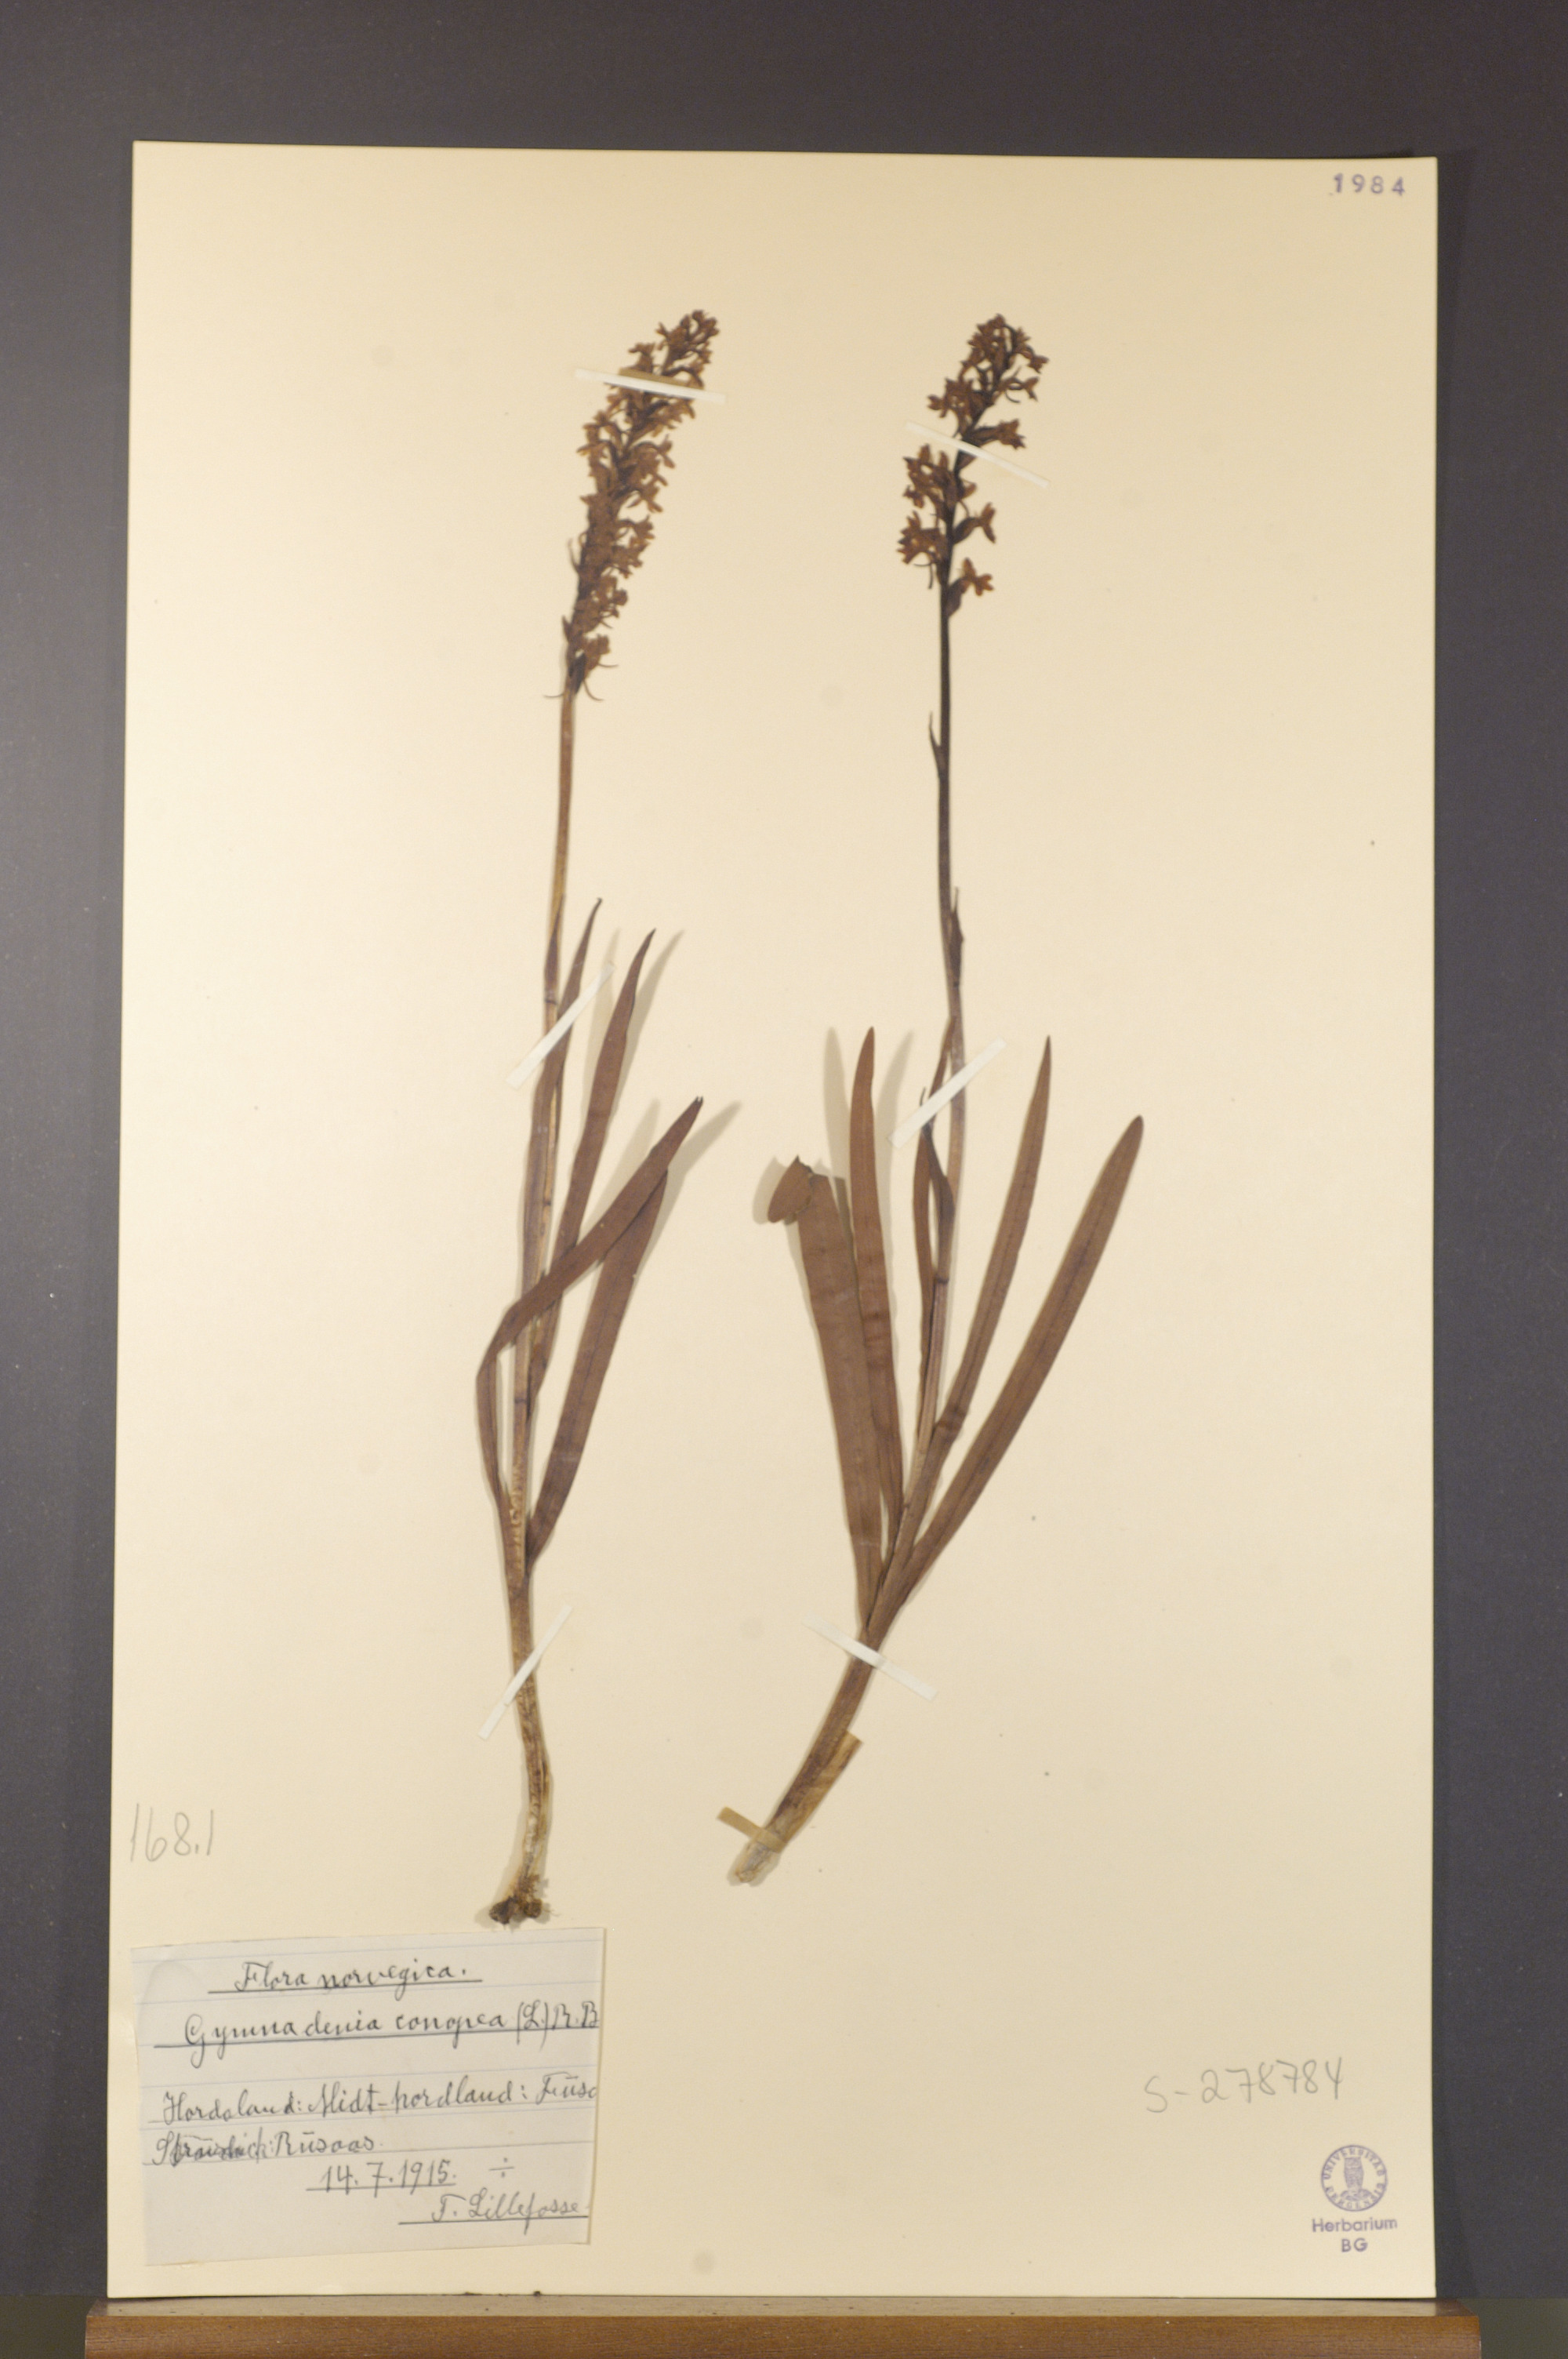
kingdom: Plantae
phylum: Tracheophyta
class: Liliopsida
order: Asparagales
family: Orchidaceae
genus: Gymnadenia
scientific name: Gymnadenia conopsea
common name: Fragrant orchid
